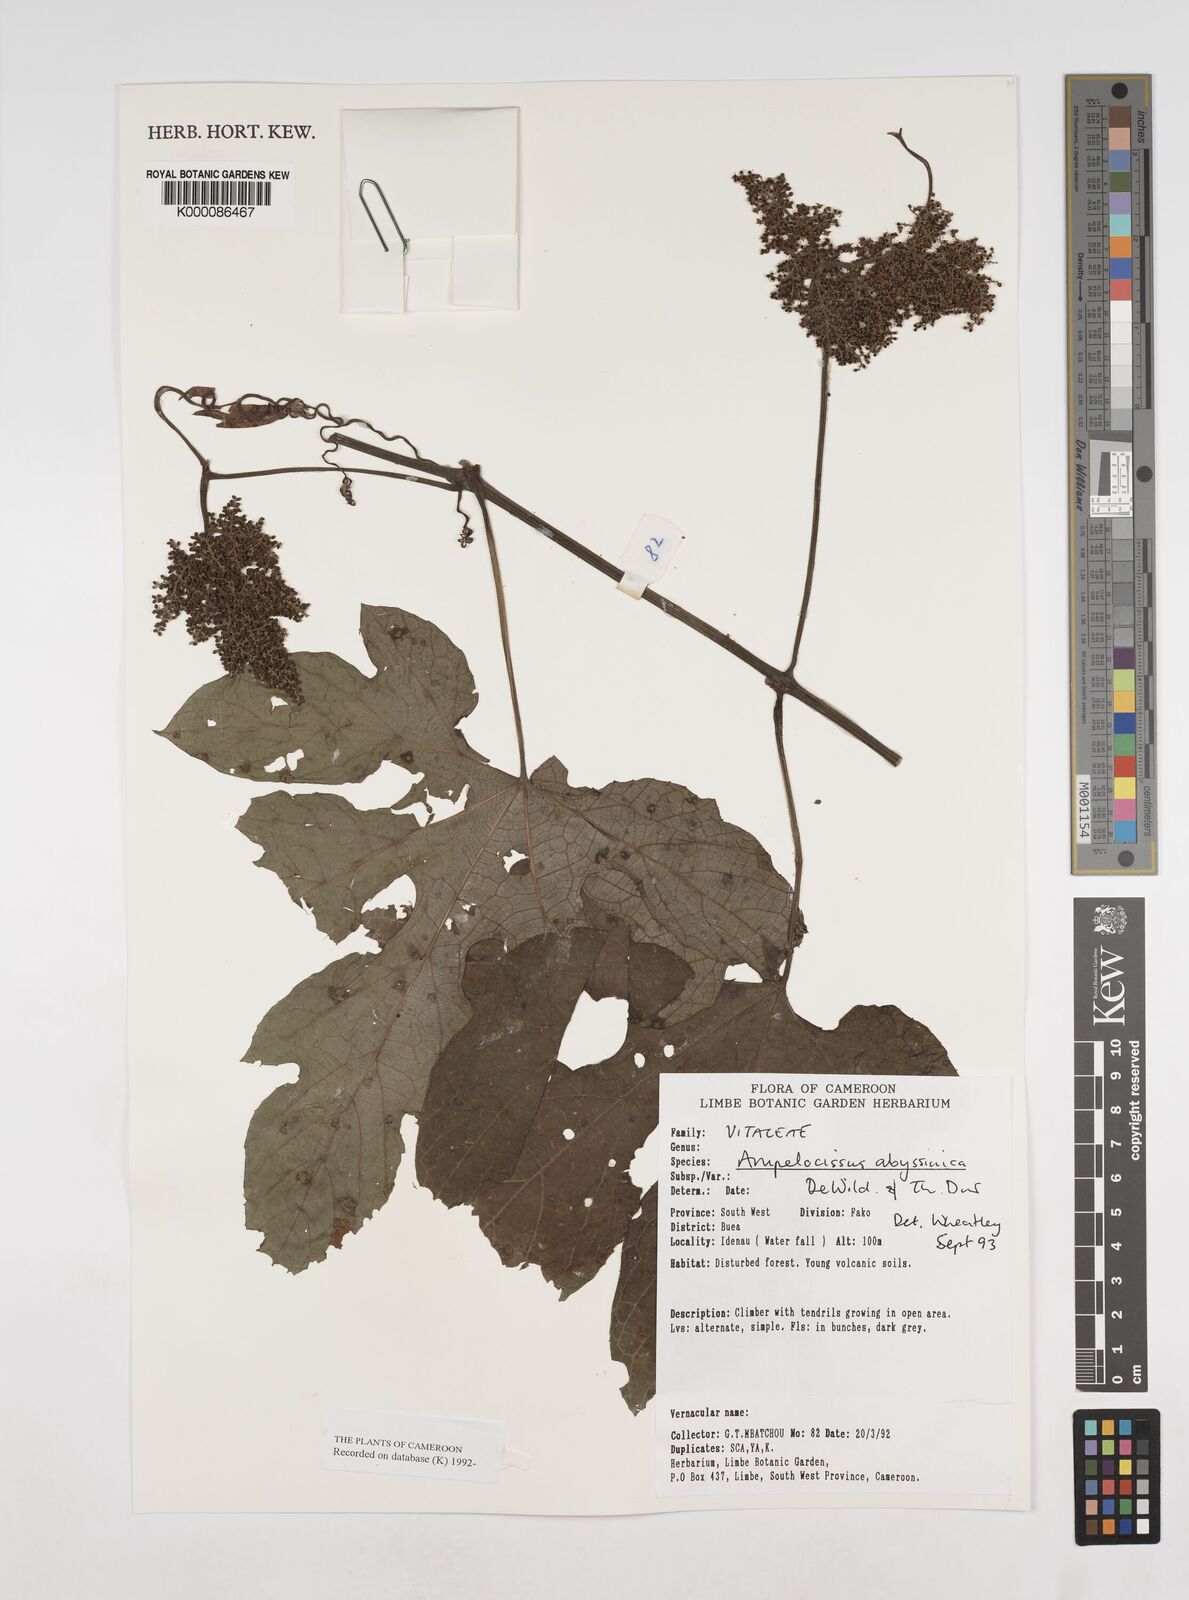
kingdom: Plantae
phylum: Tracheophyta
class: Magnoliopsida
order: Vitales
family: Vitaceae
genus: Ampelocissus
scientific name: Ampelocissus abyssinica
